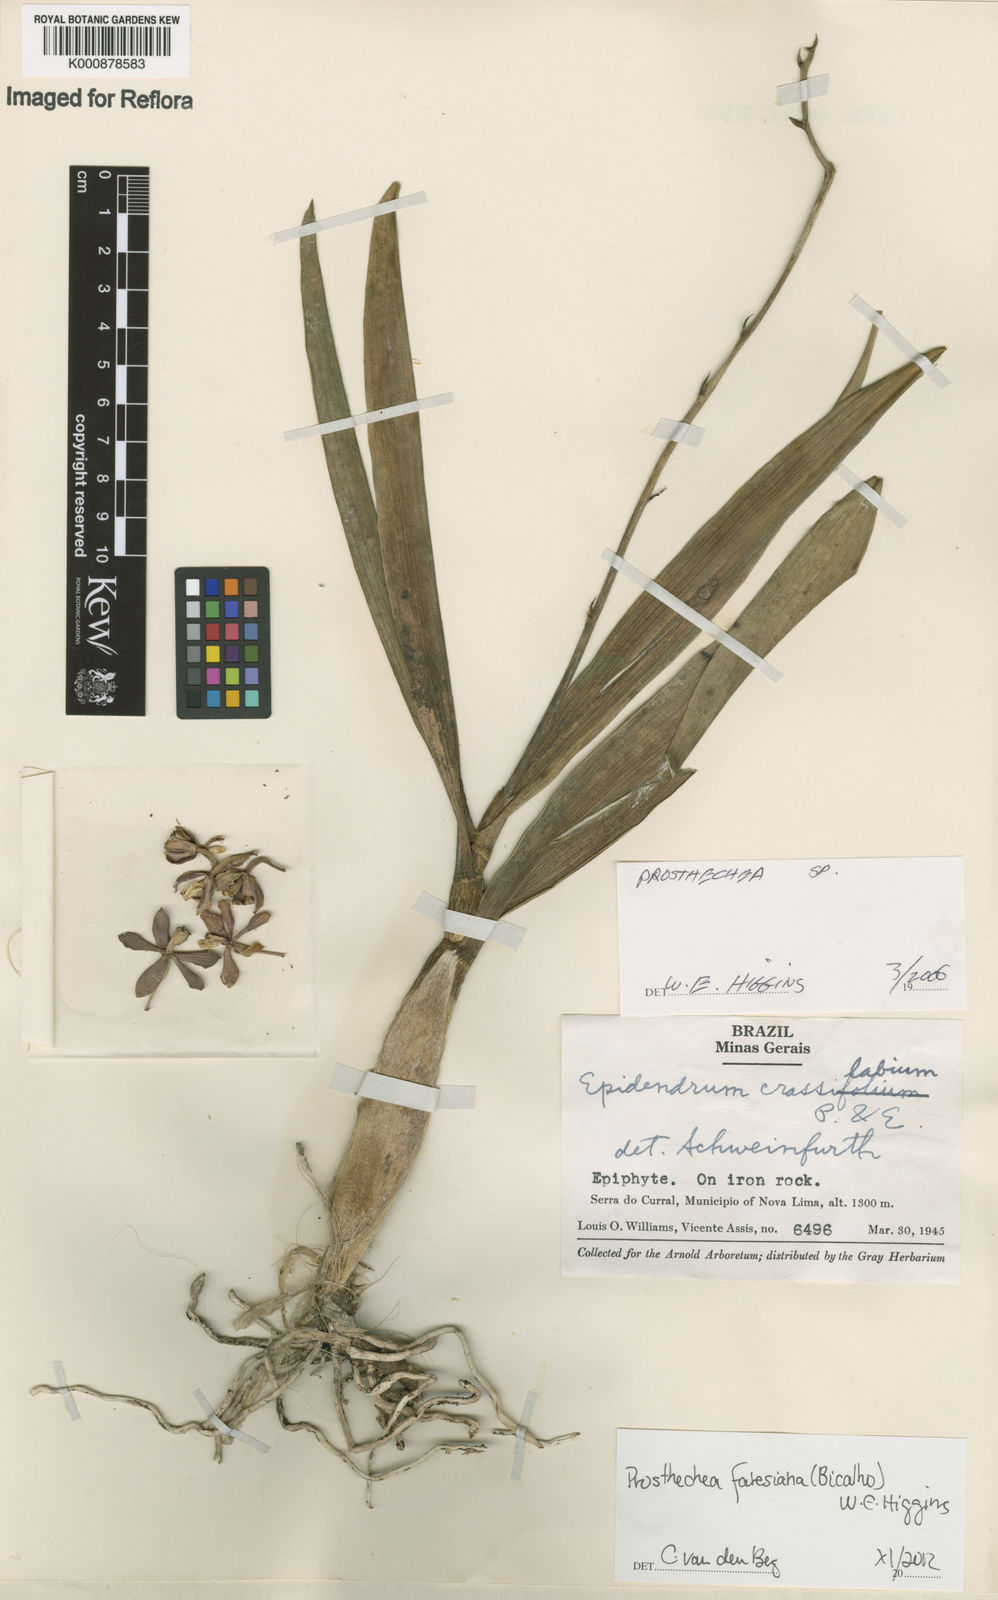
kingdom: Plantae
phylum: Tracheophyta
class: Liliopsida
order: Asparagales
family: Orchidaceae
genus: Prosthechea
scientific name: Prosthechea faresiana
